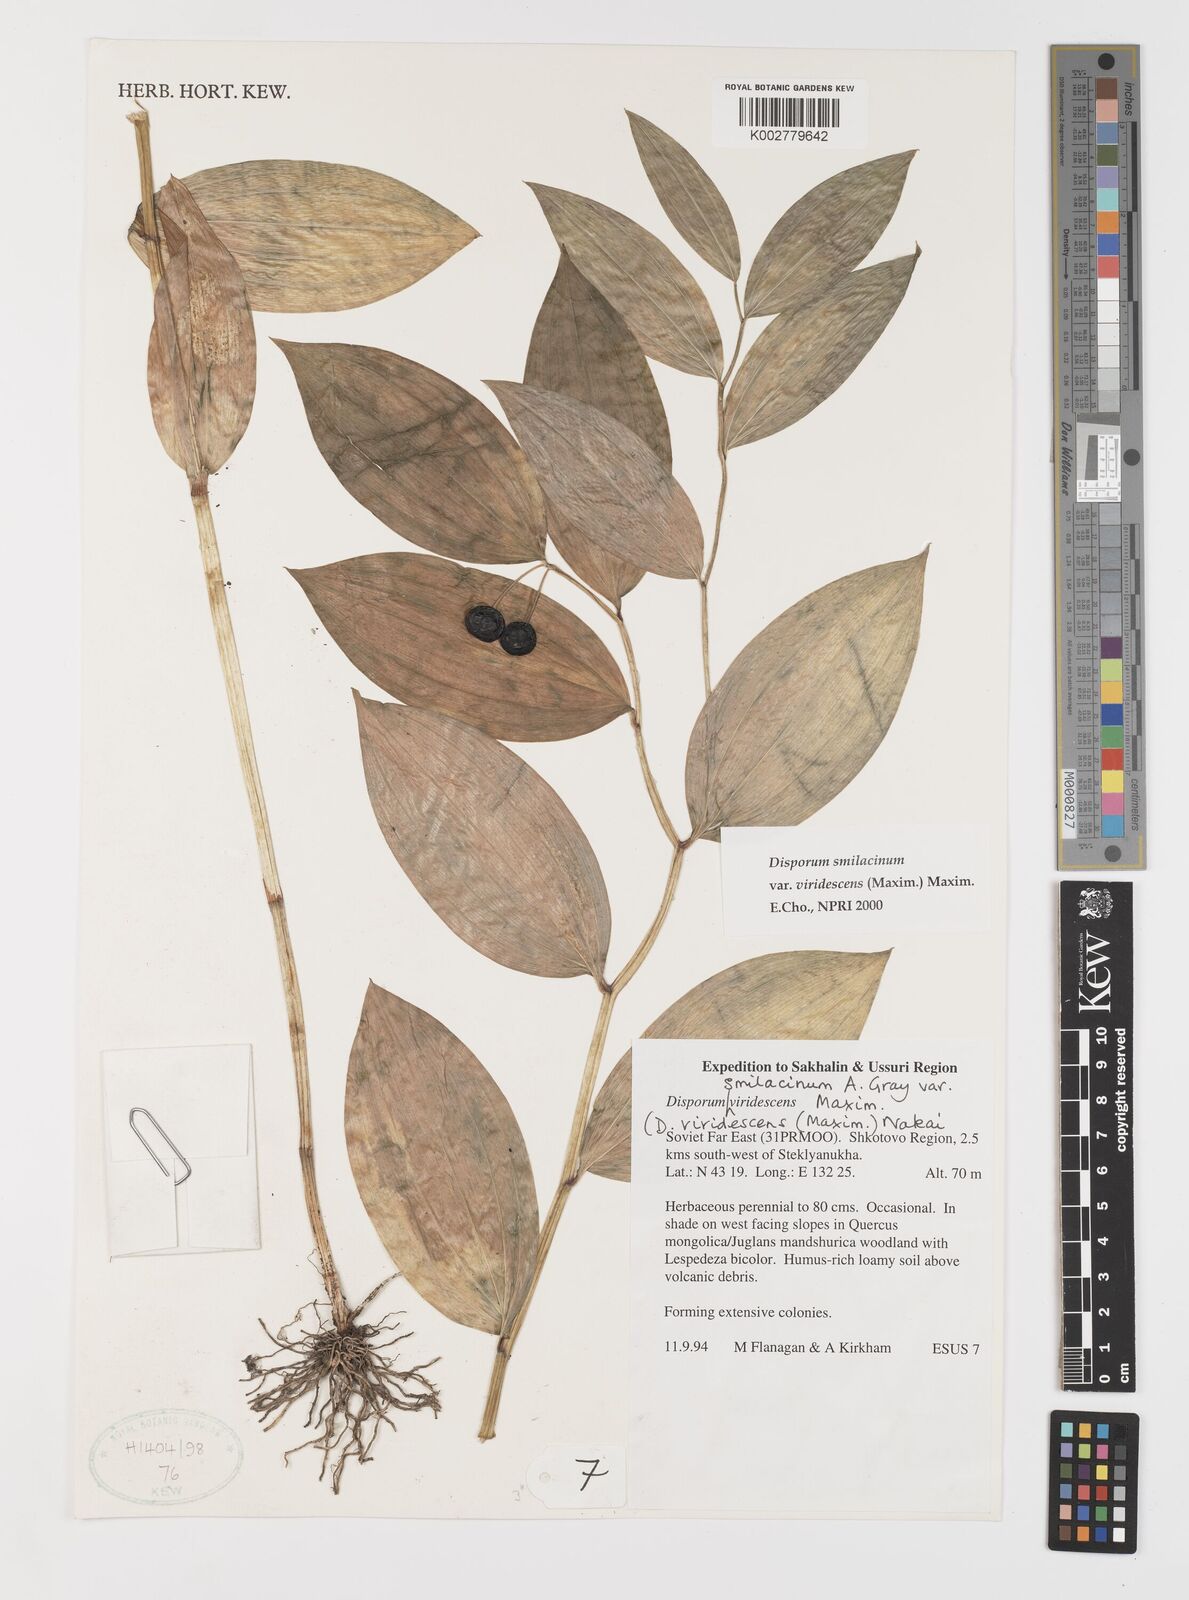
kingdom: Plantae
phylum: Tracheophyta
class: Liliopsida
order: Liliales
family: Colchicaceae
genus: Disporum
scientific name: Disporum viridescens
